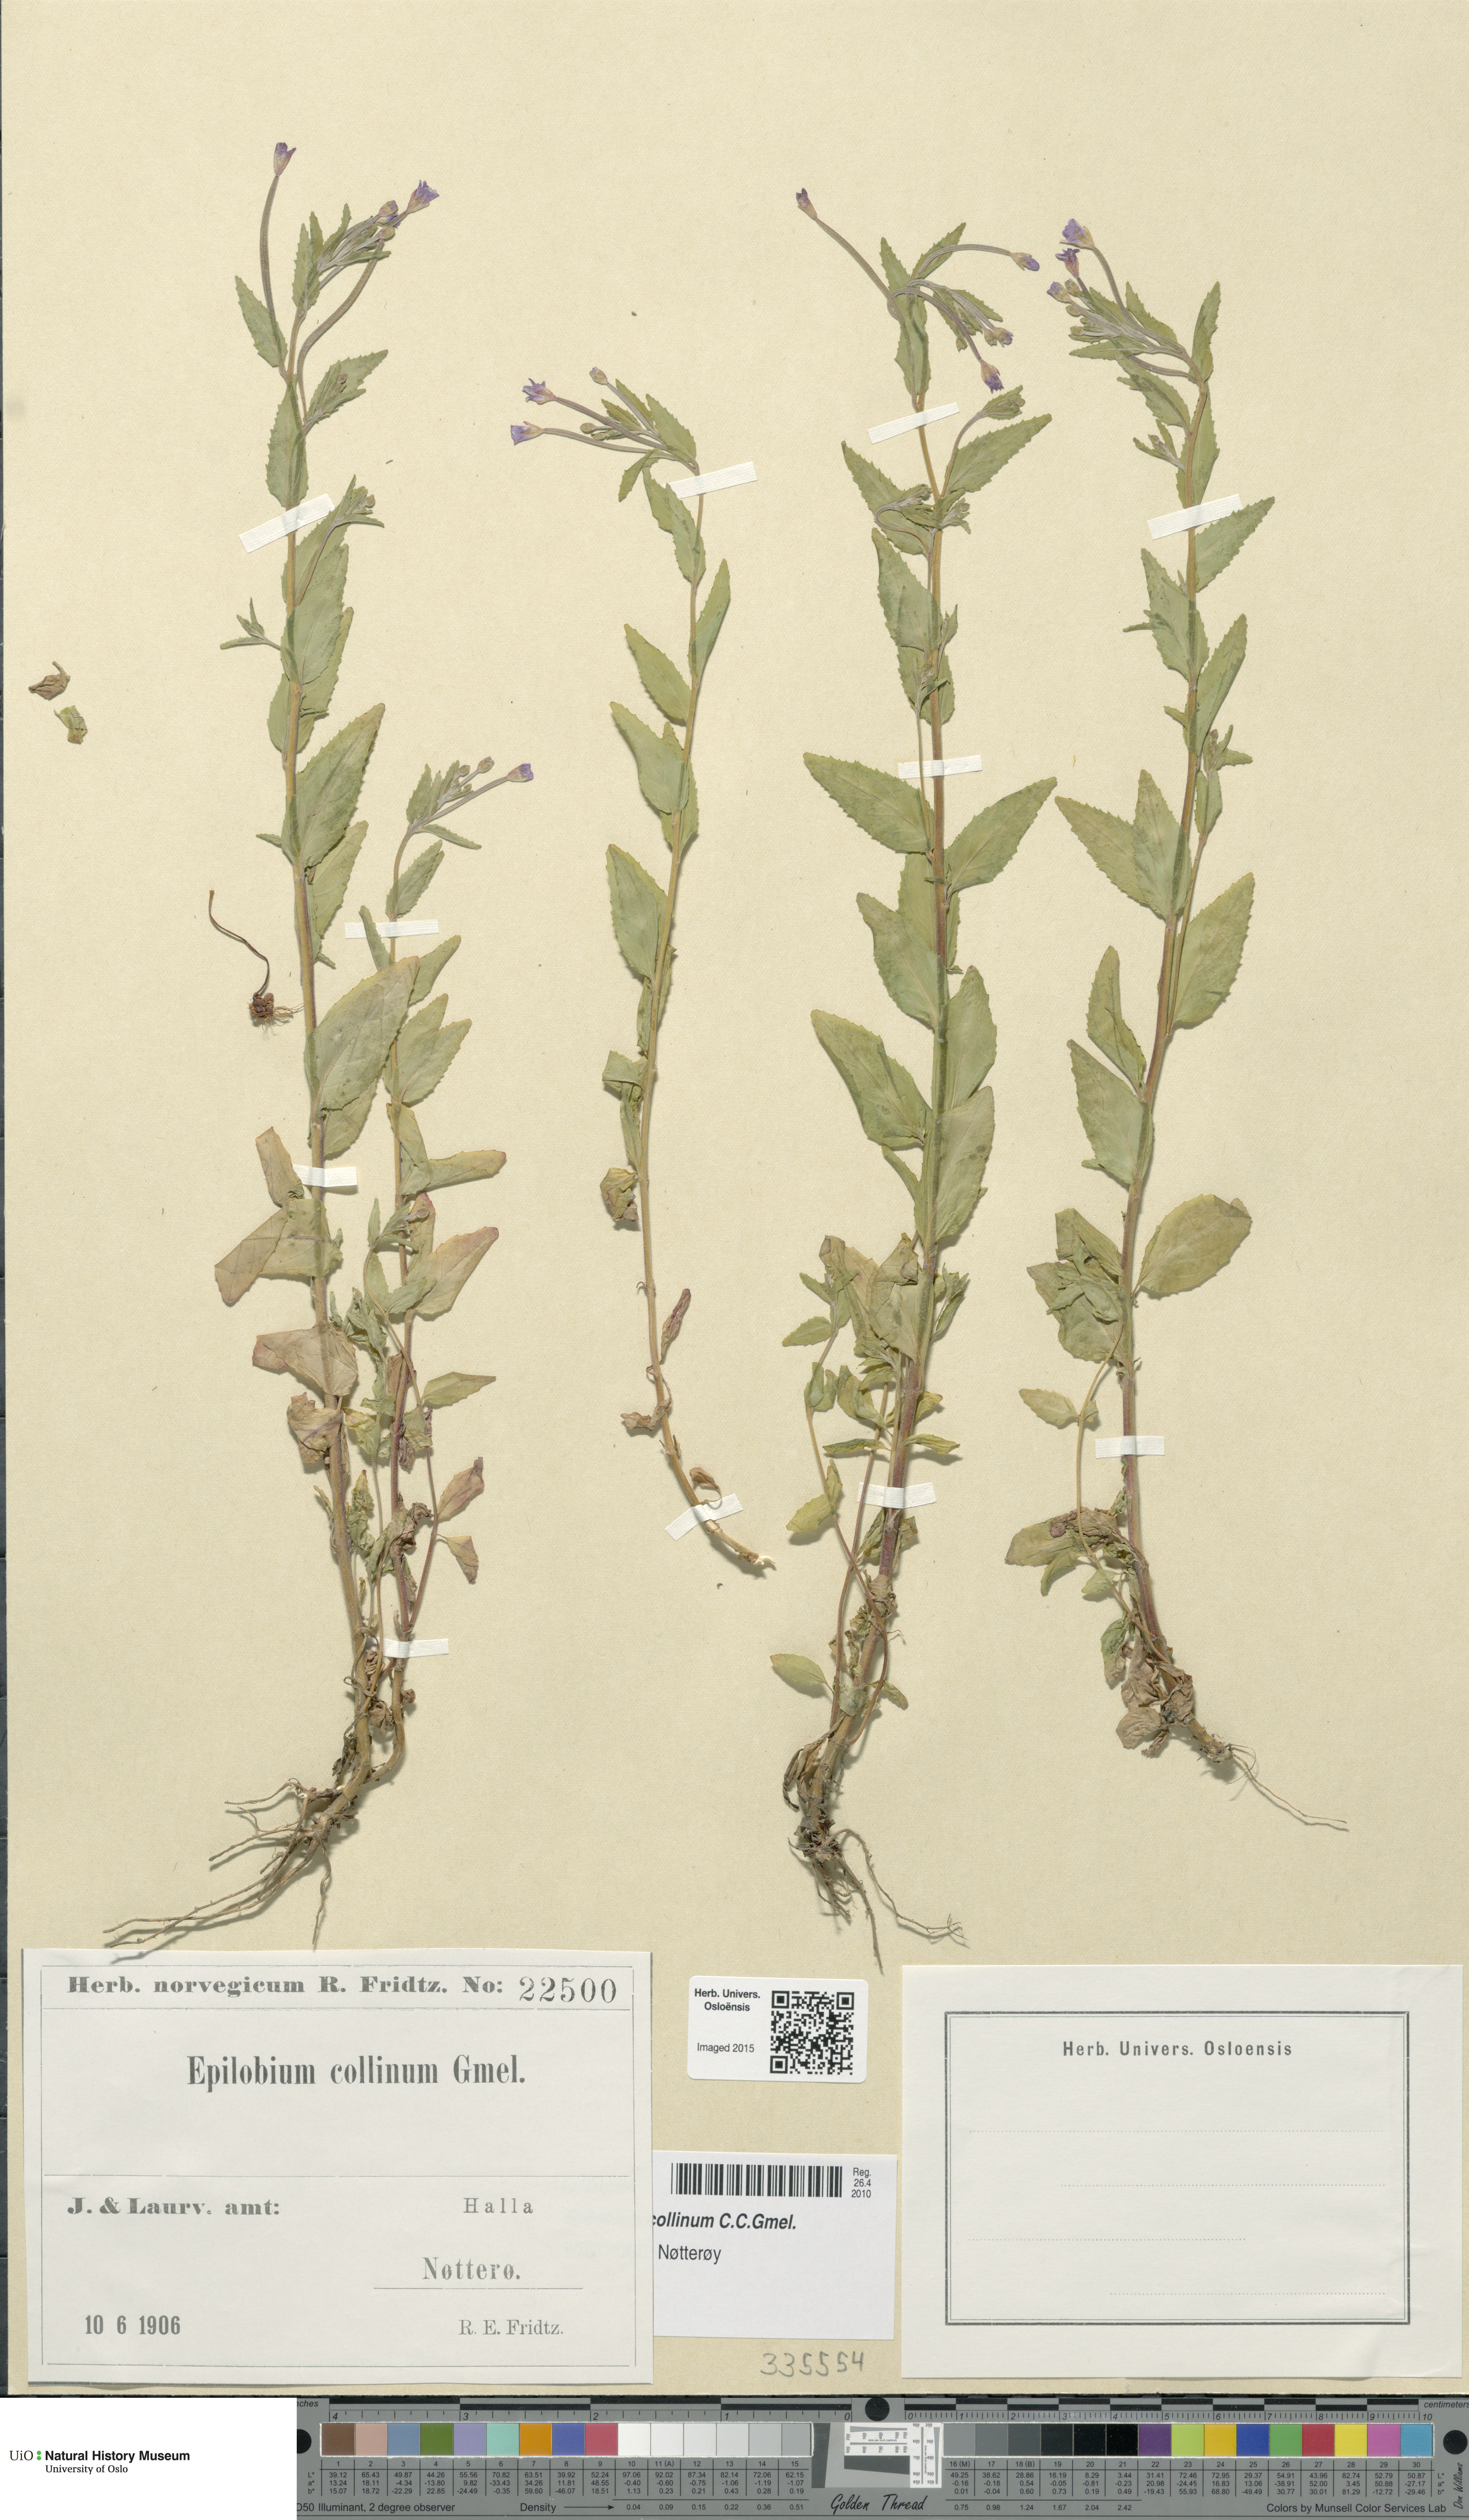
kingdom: Plantae
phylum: Tracheophyta
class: Magnoliopsida
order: Myrtales
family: Onagraceae
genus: Epilobium
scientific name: Epilobium collinum
